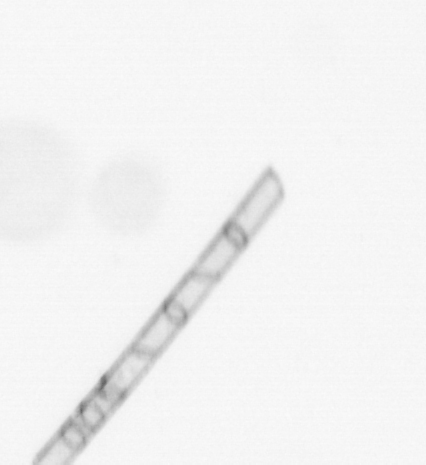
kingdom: Chromista
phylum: Ochrophyta
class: Bacillariophyceae
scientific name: Bacillariophyceae
